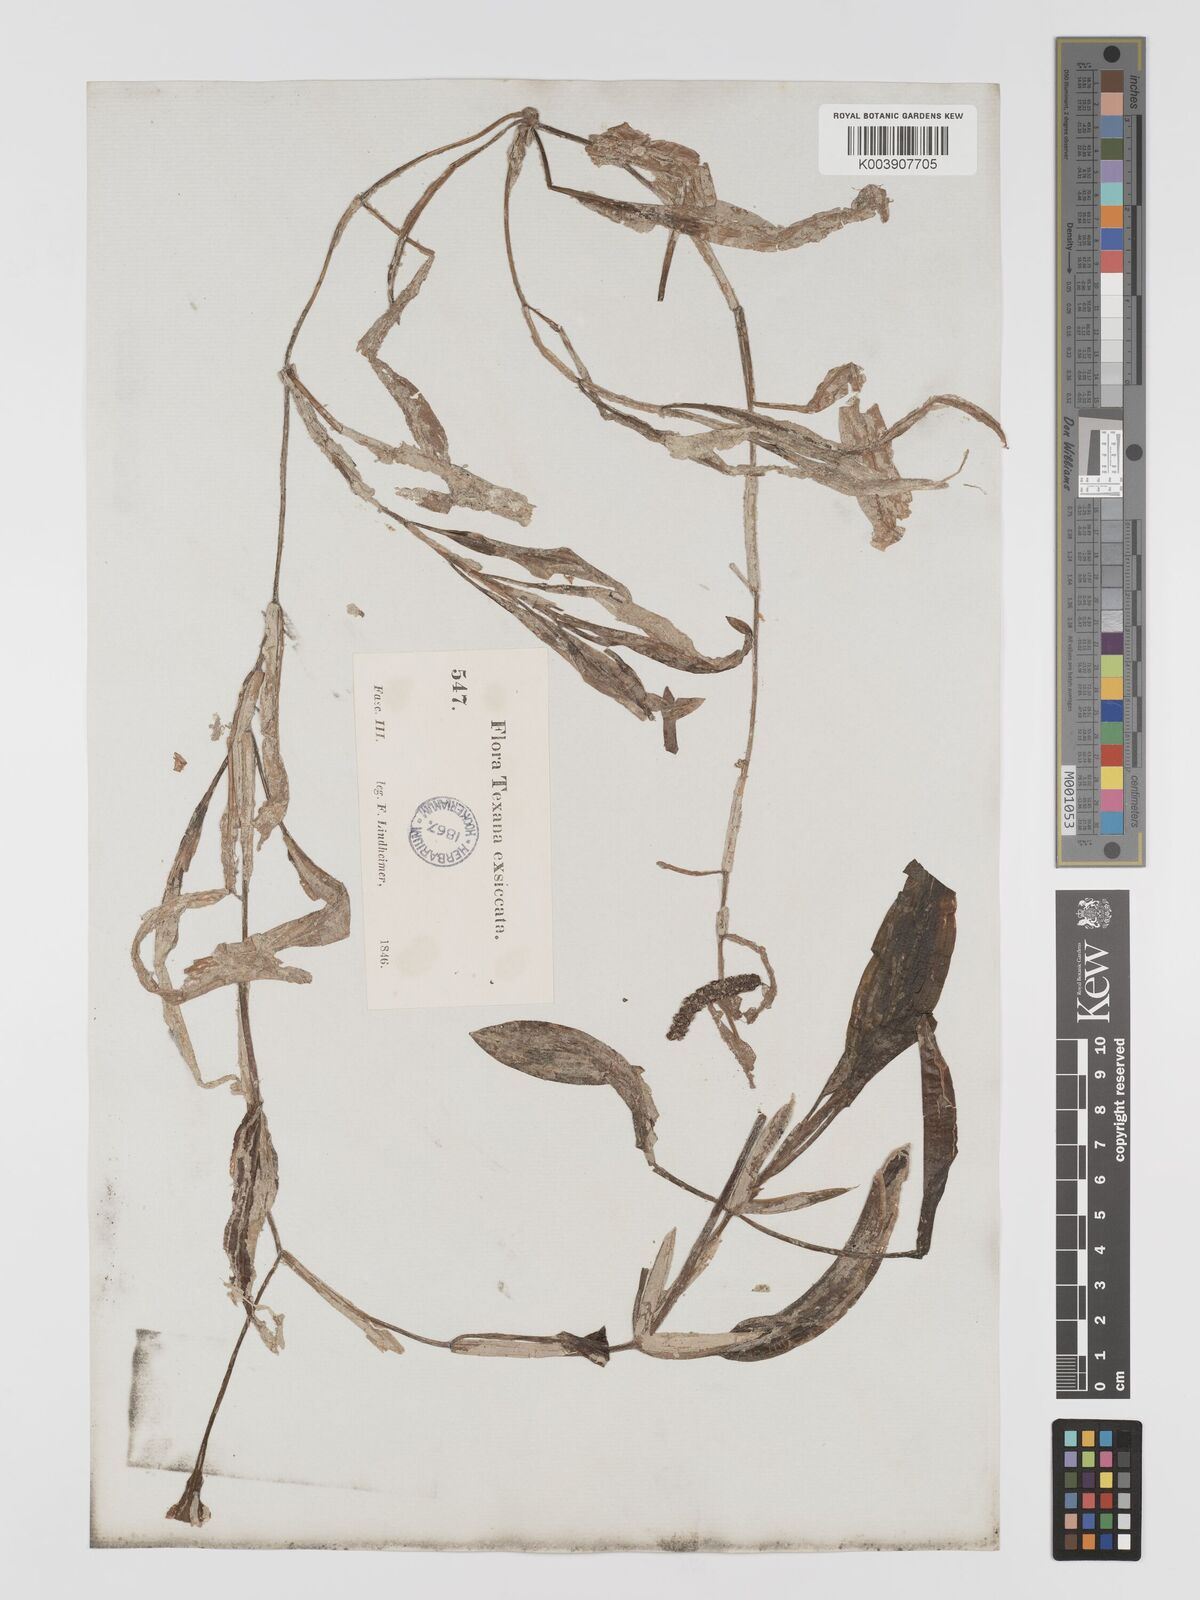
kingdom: Plantae
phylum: Tracheophyta
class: Liliopsida
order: Alismatales
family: Potamogetonaceae
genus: Potamogeton
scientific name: Potamogeton illinoensis
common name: Illinois pondweed
